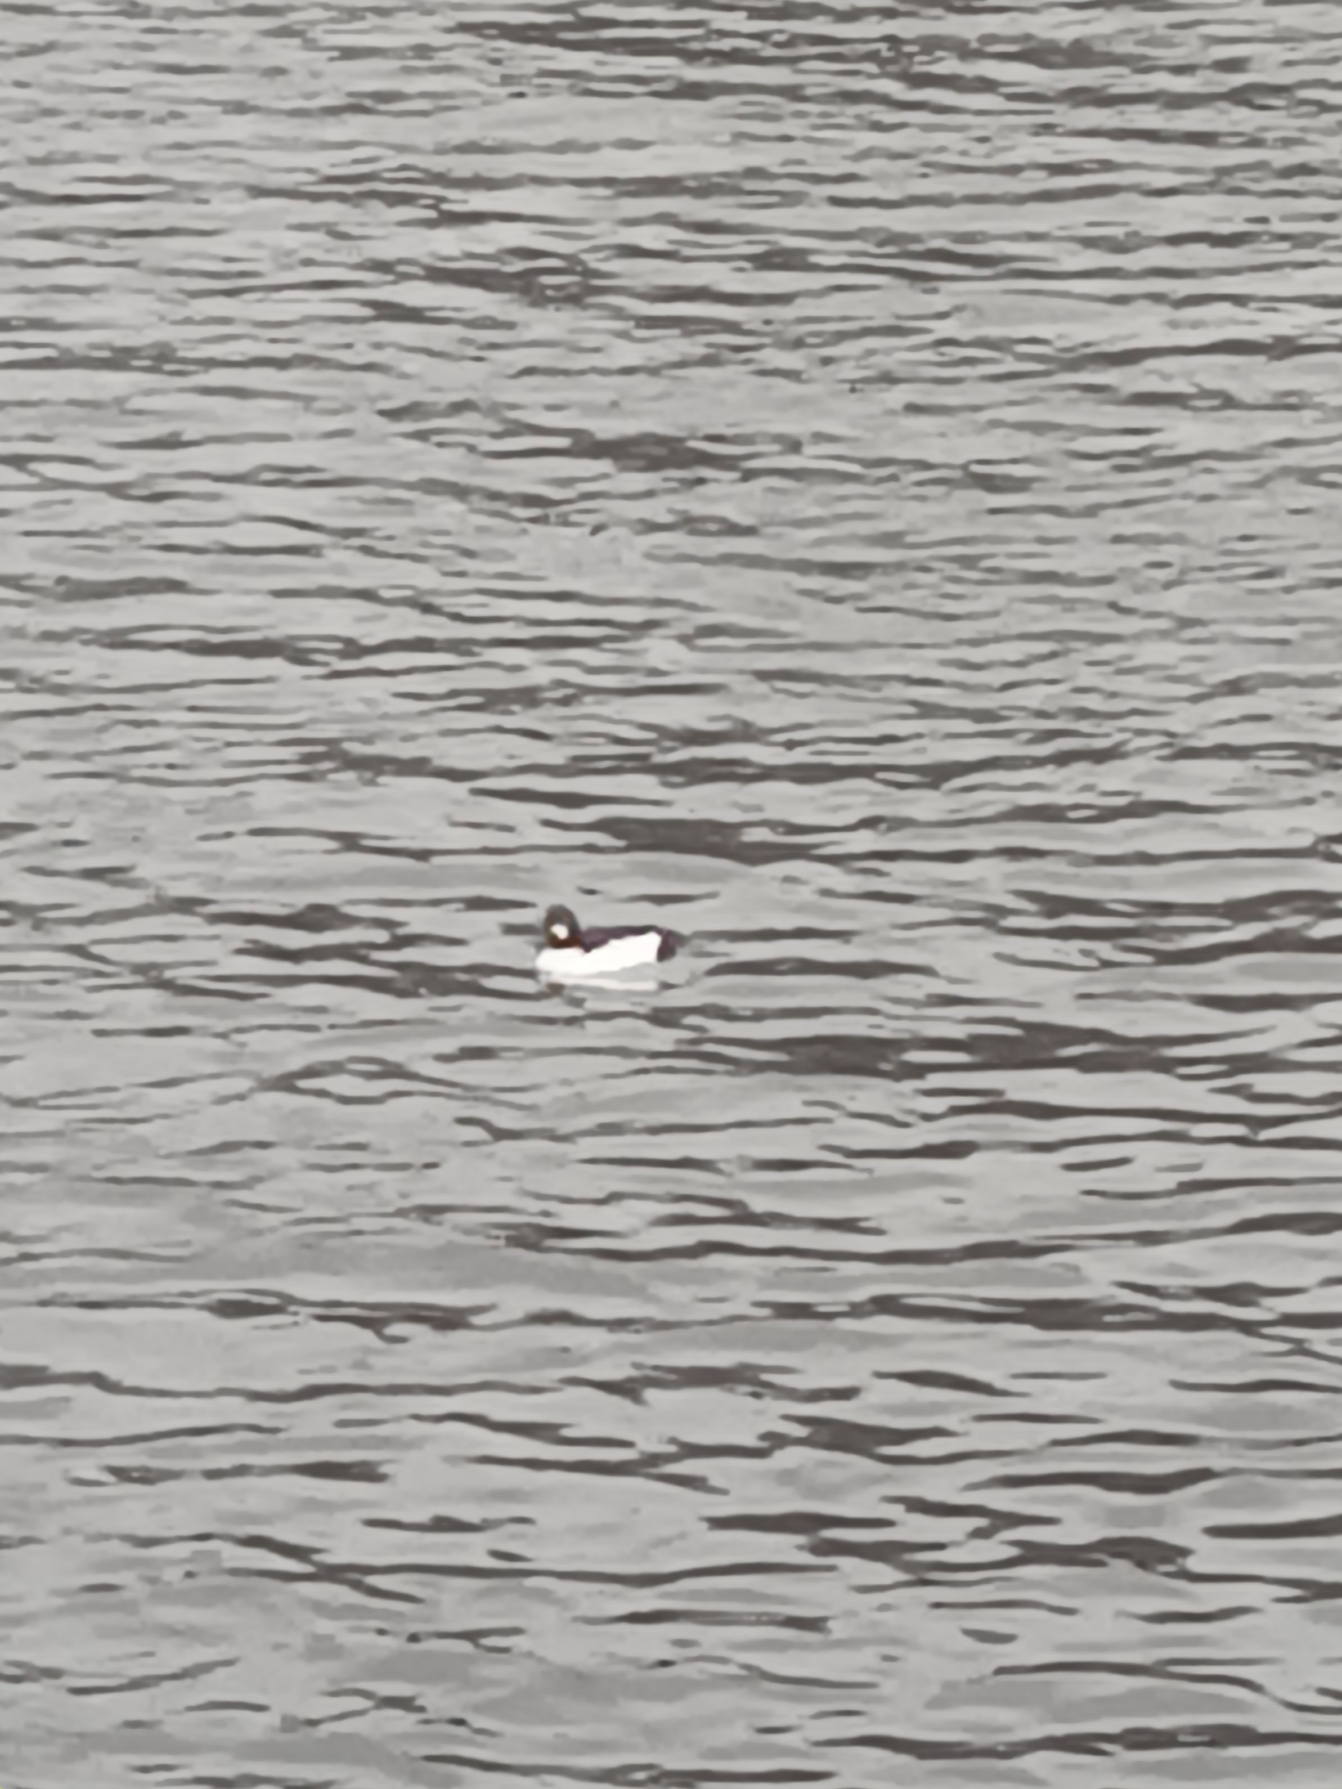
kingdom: Animalia
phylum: Chordata
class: Aves
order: Anseriformes
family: Anatidae
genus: Bucephala
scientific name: Bucephala clangula
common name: Hvinand
